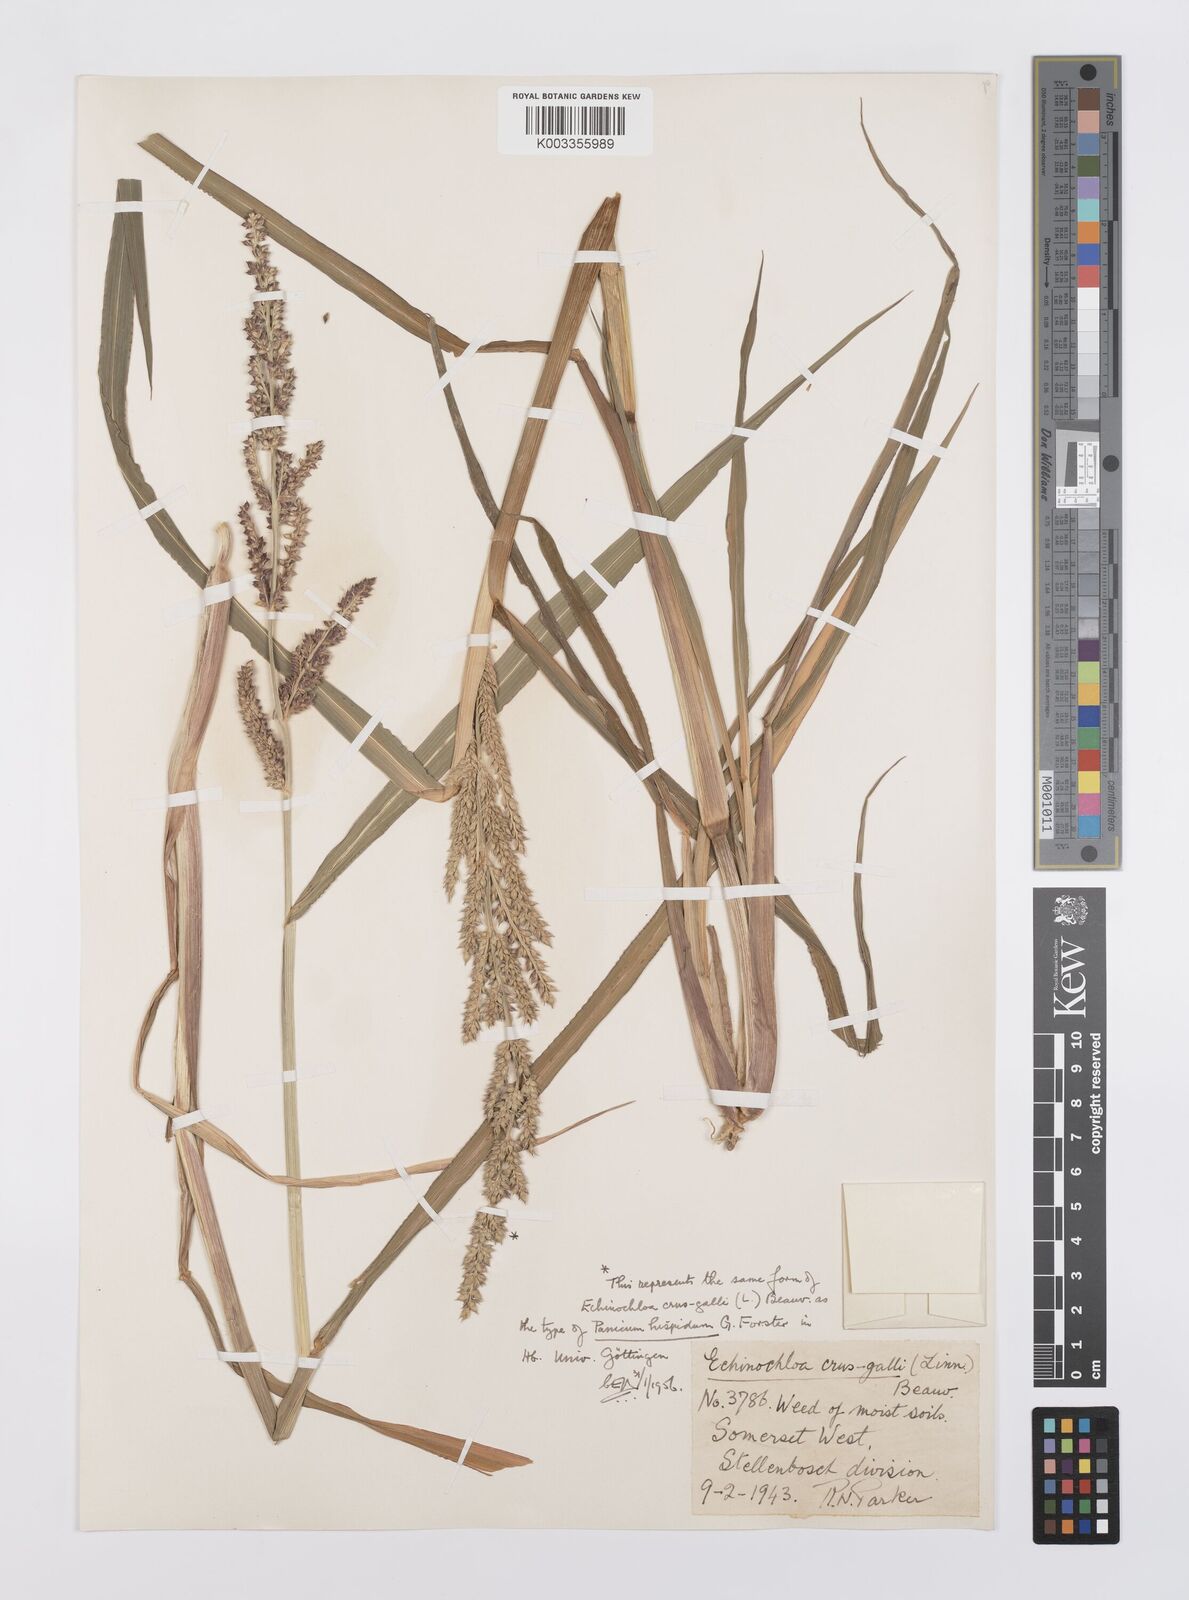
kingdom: Plantae
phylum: Tracheophyta
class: Liliopsida
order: Poales
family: Poaceae
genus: Echinochloa
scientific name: Echinochloa crus-galli
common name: Cockspur
